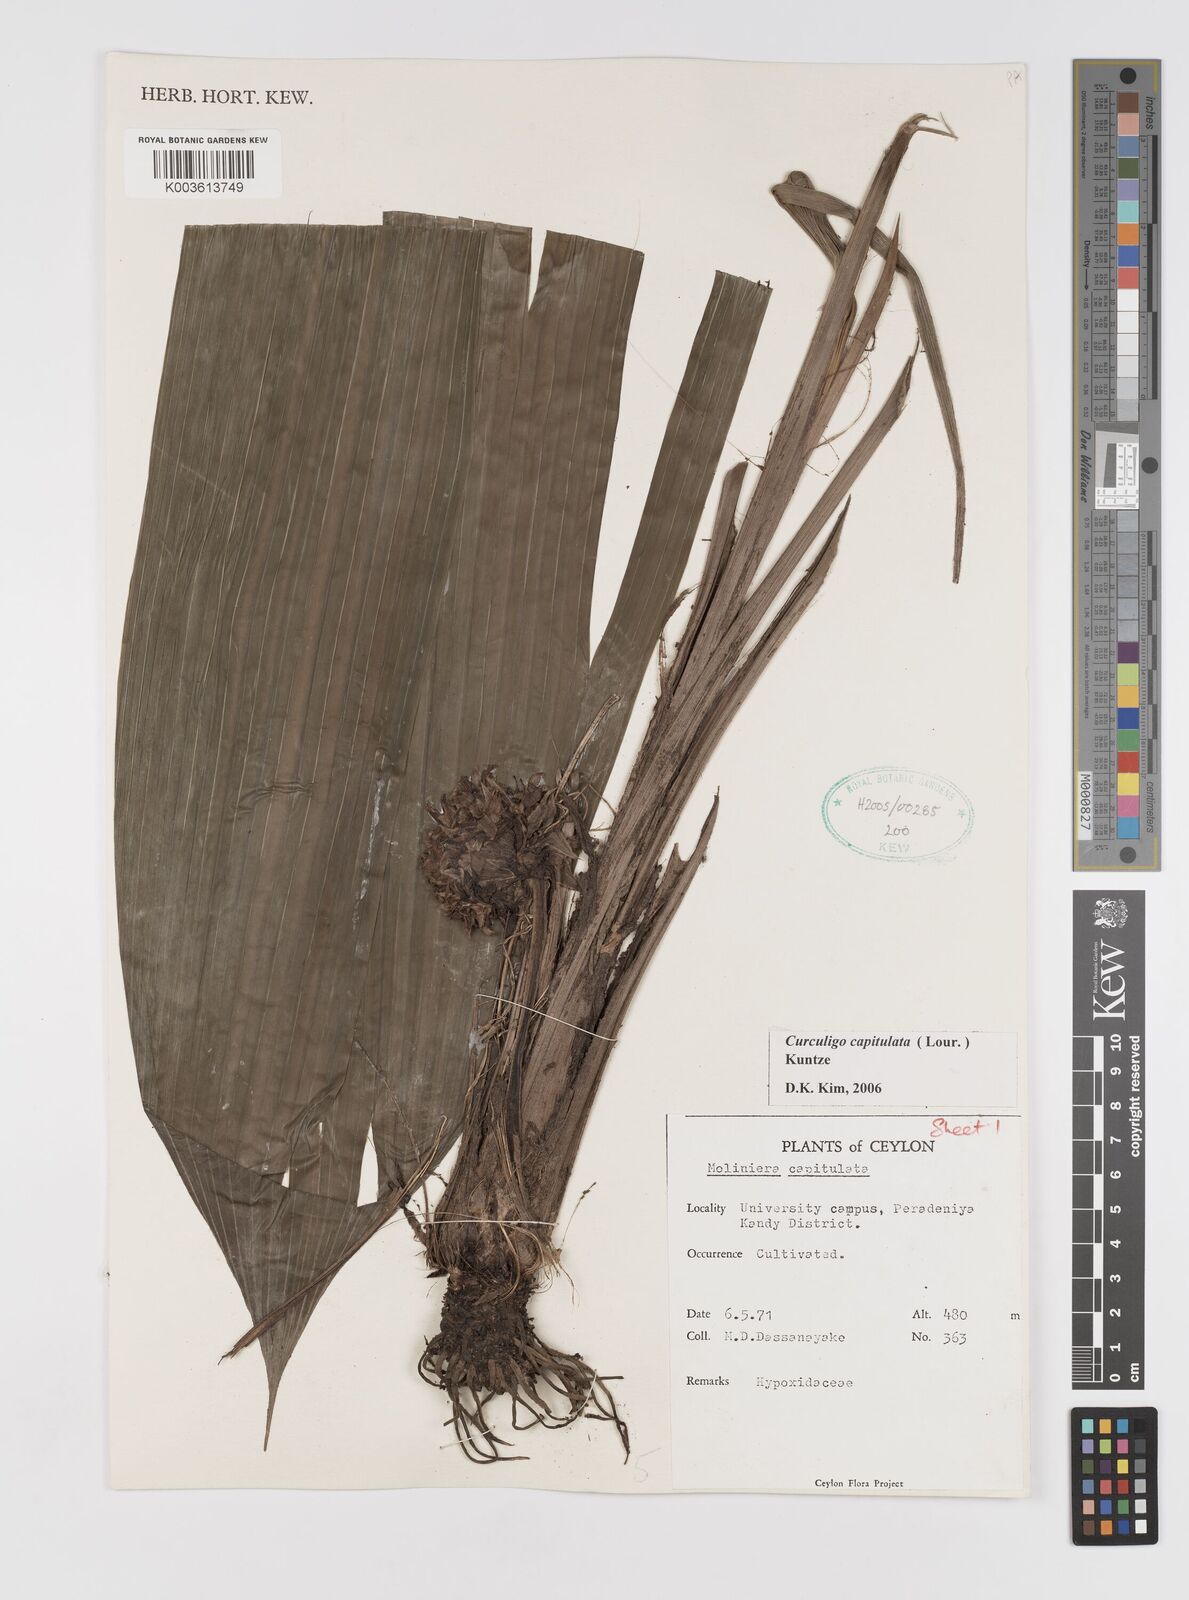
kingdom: Plantae
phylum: Tracheophyta
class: Liliopsida
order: Asparagales
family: Hypoxidaceae
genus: Curculigo
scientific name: Curculigo capitulata
